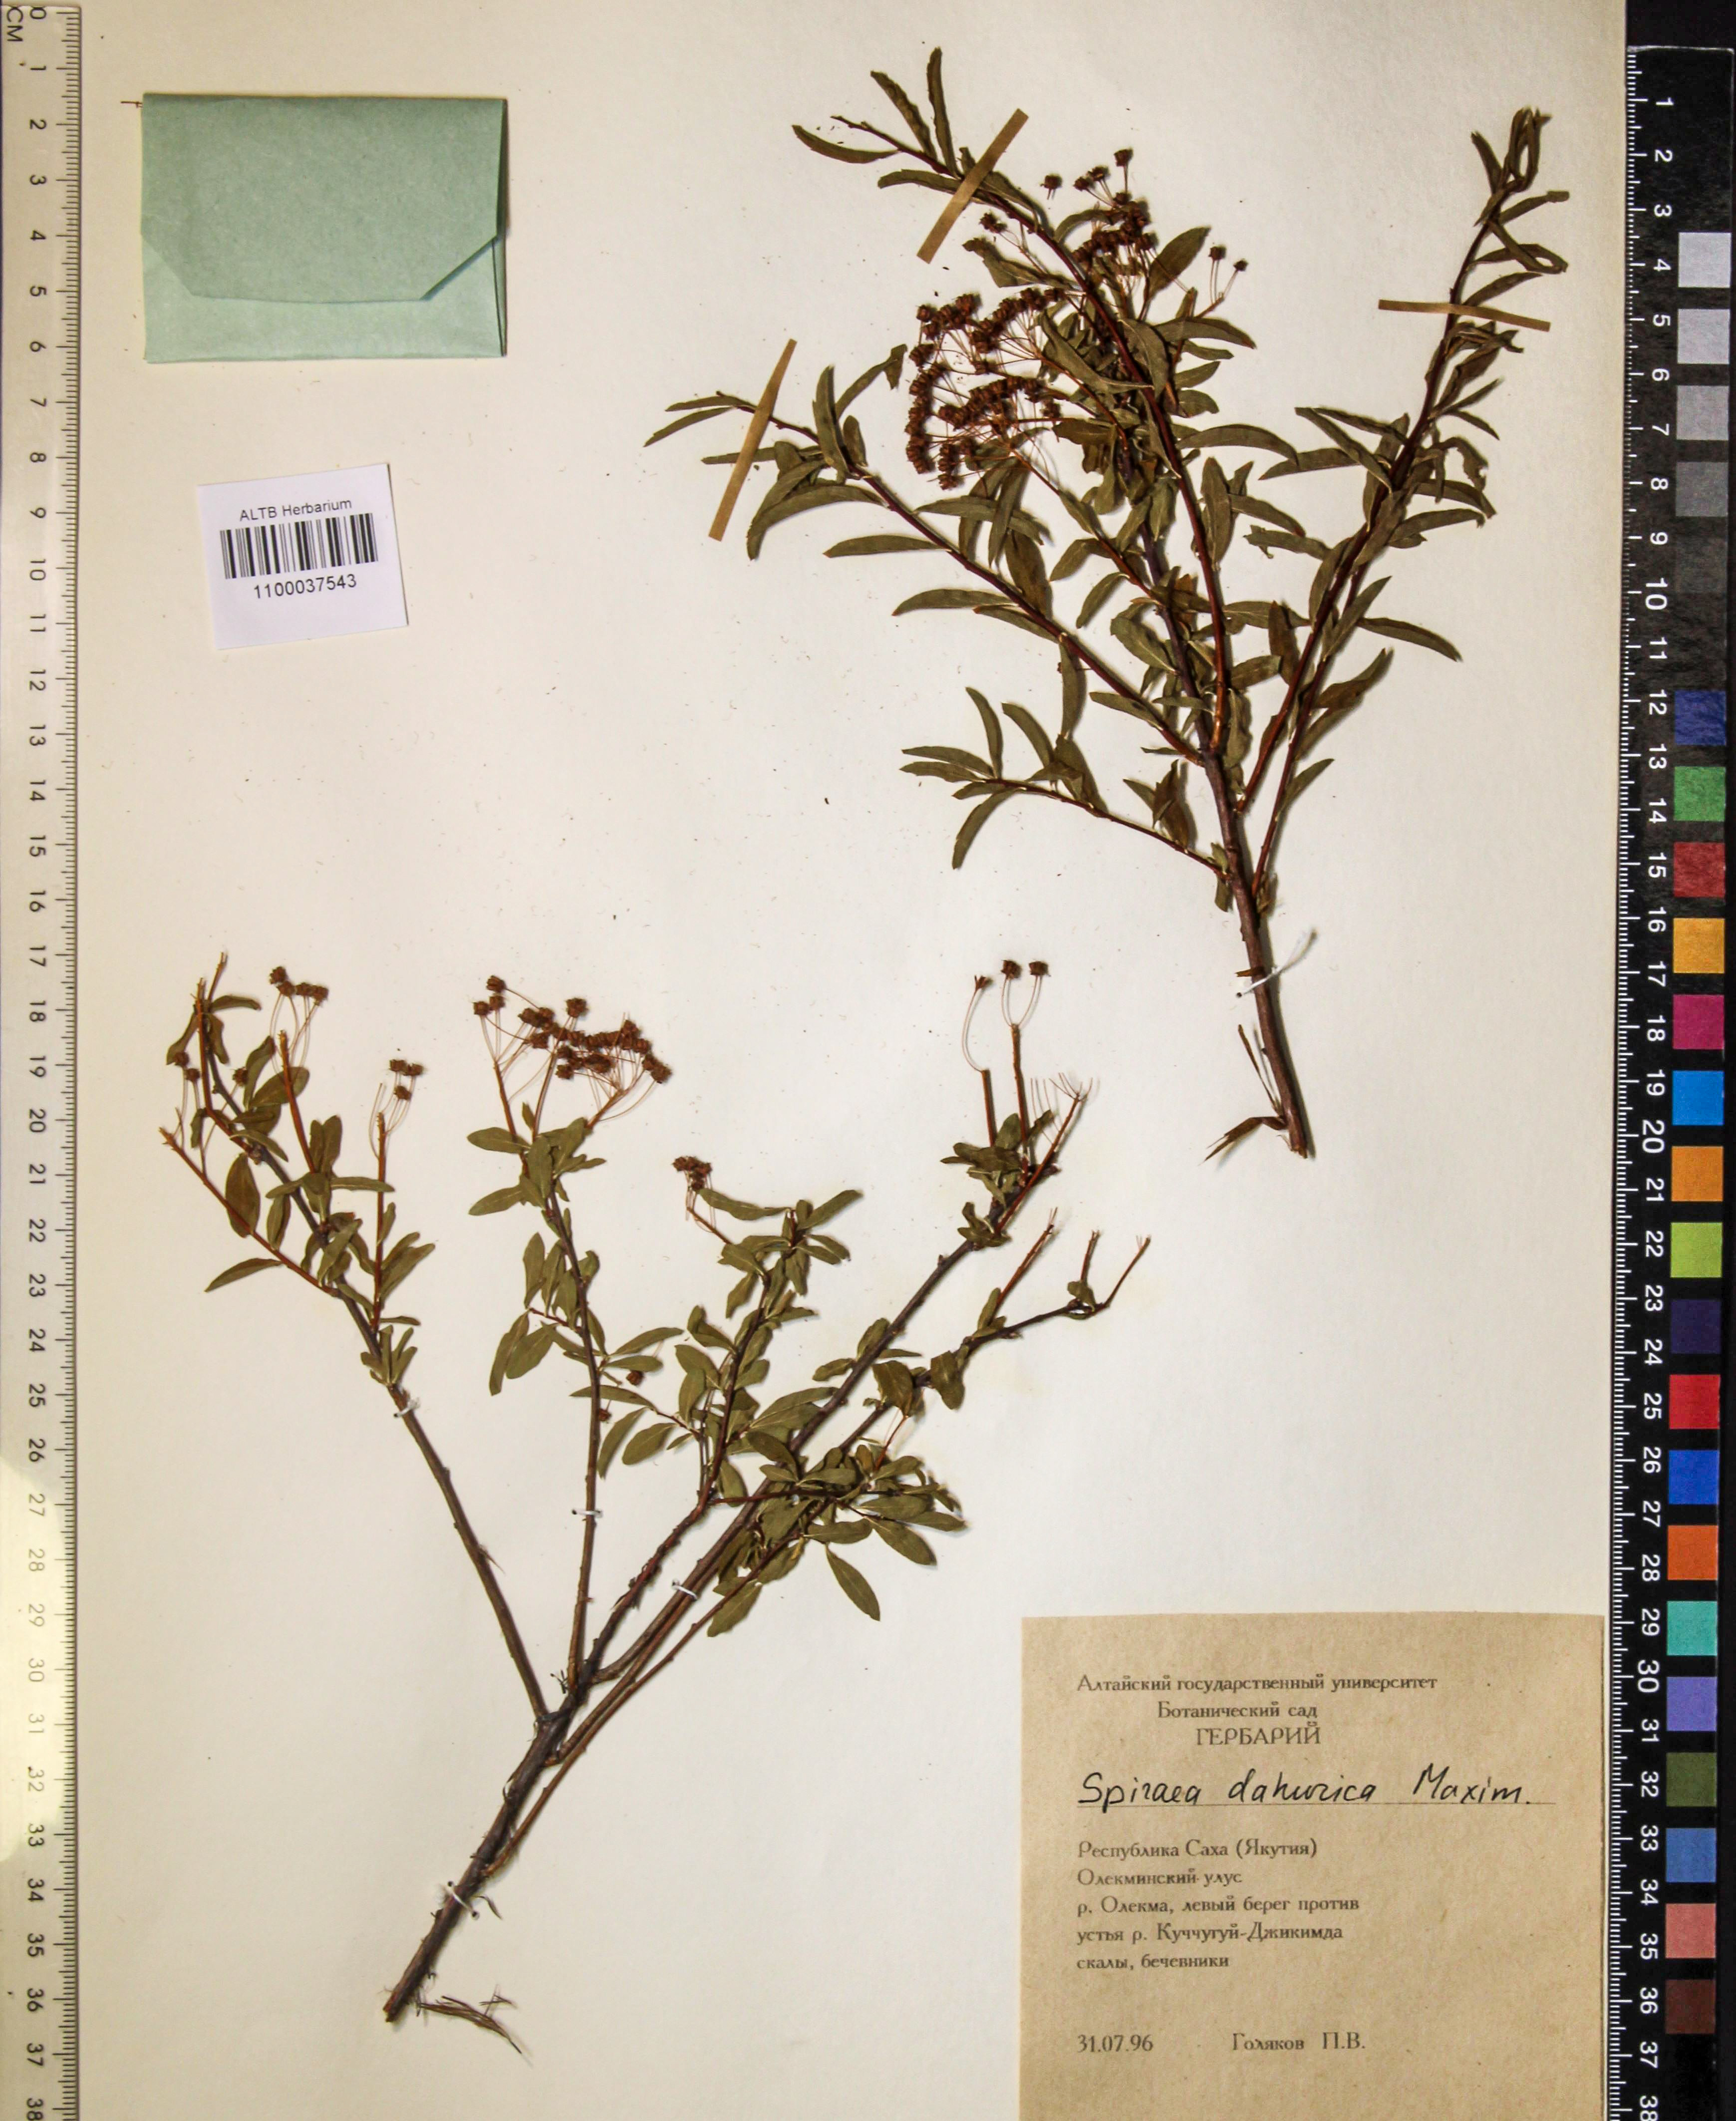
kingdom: Plantae
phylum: Tracheophyta
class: Magnoliopsida
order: Rosales
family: Rosaceae
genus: Spiraea
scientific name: Spiraea dahurica
